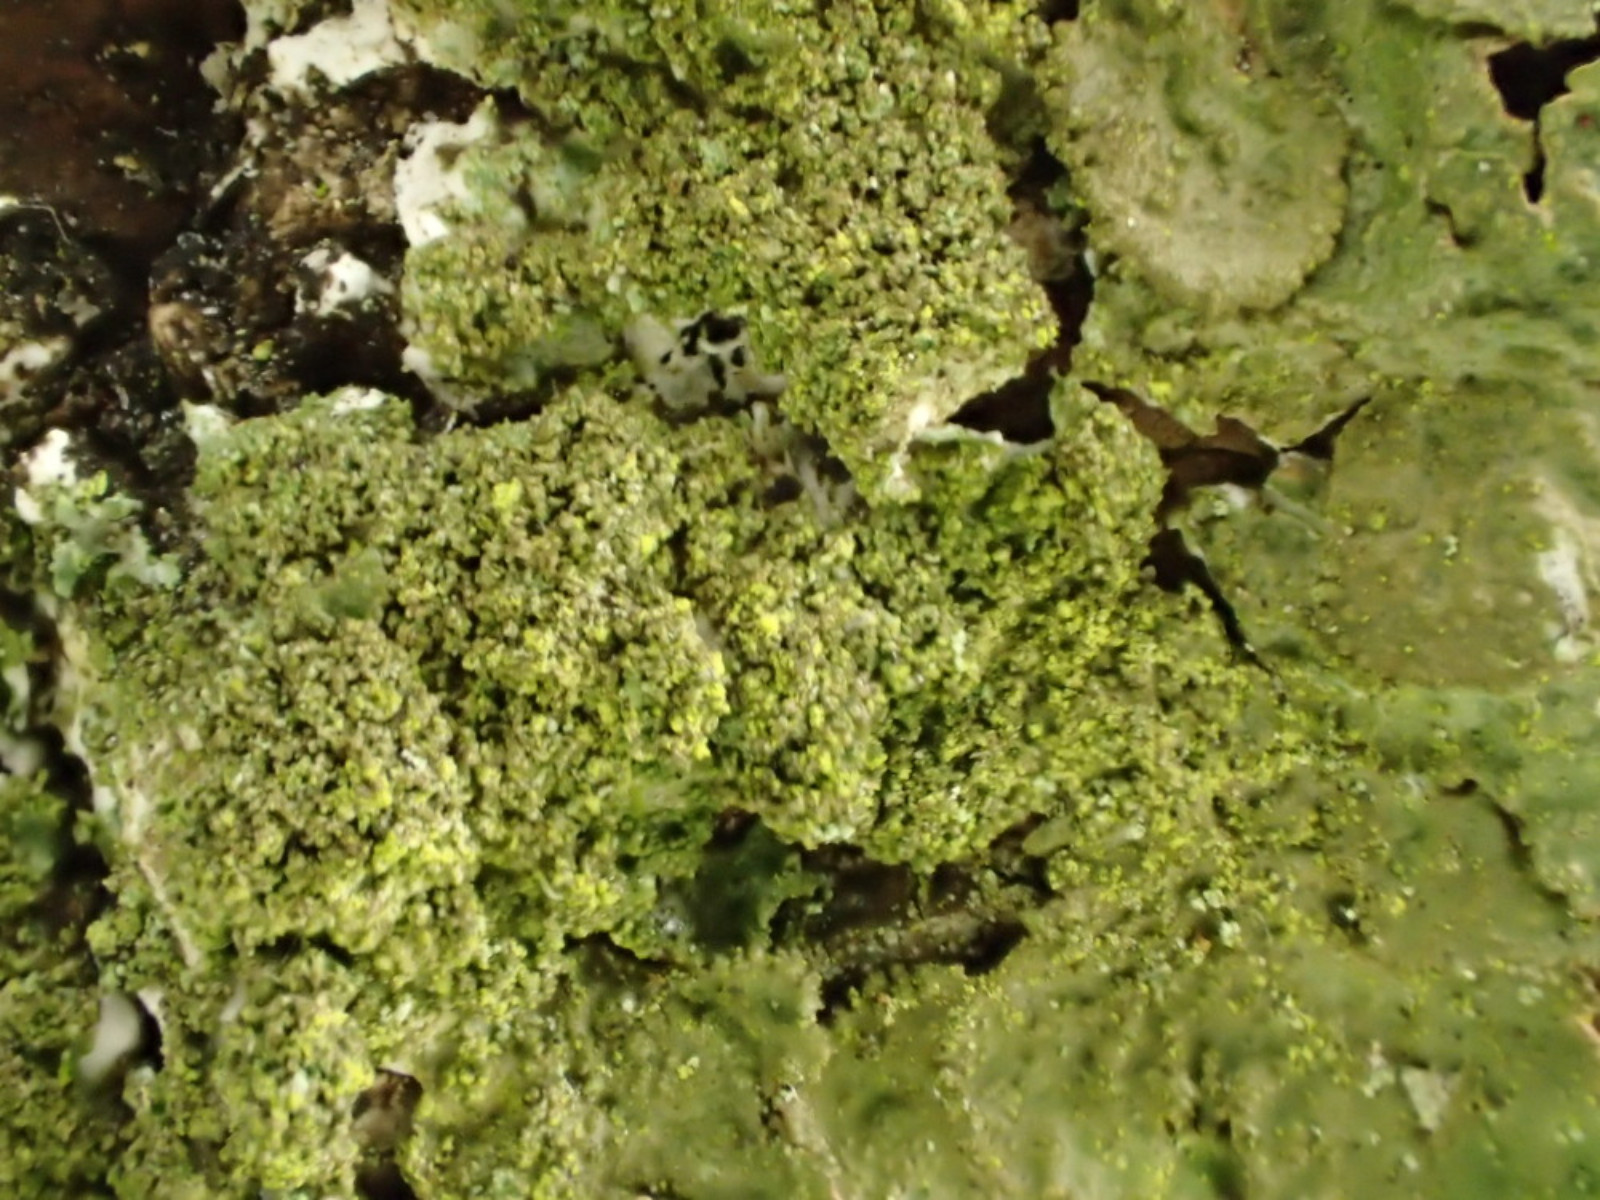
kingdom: Fungi
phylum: Ascomycota
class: Lecanoromycetes
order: Lecanorales
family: Parmeliaceae
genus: Melanelixia
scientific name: Melanelixia subaurifera
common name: guldpudret skållav
